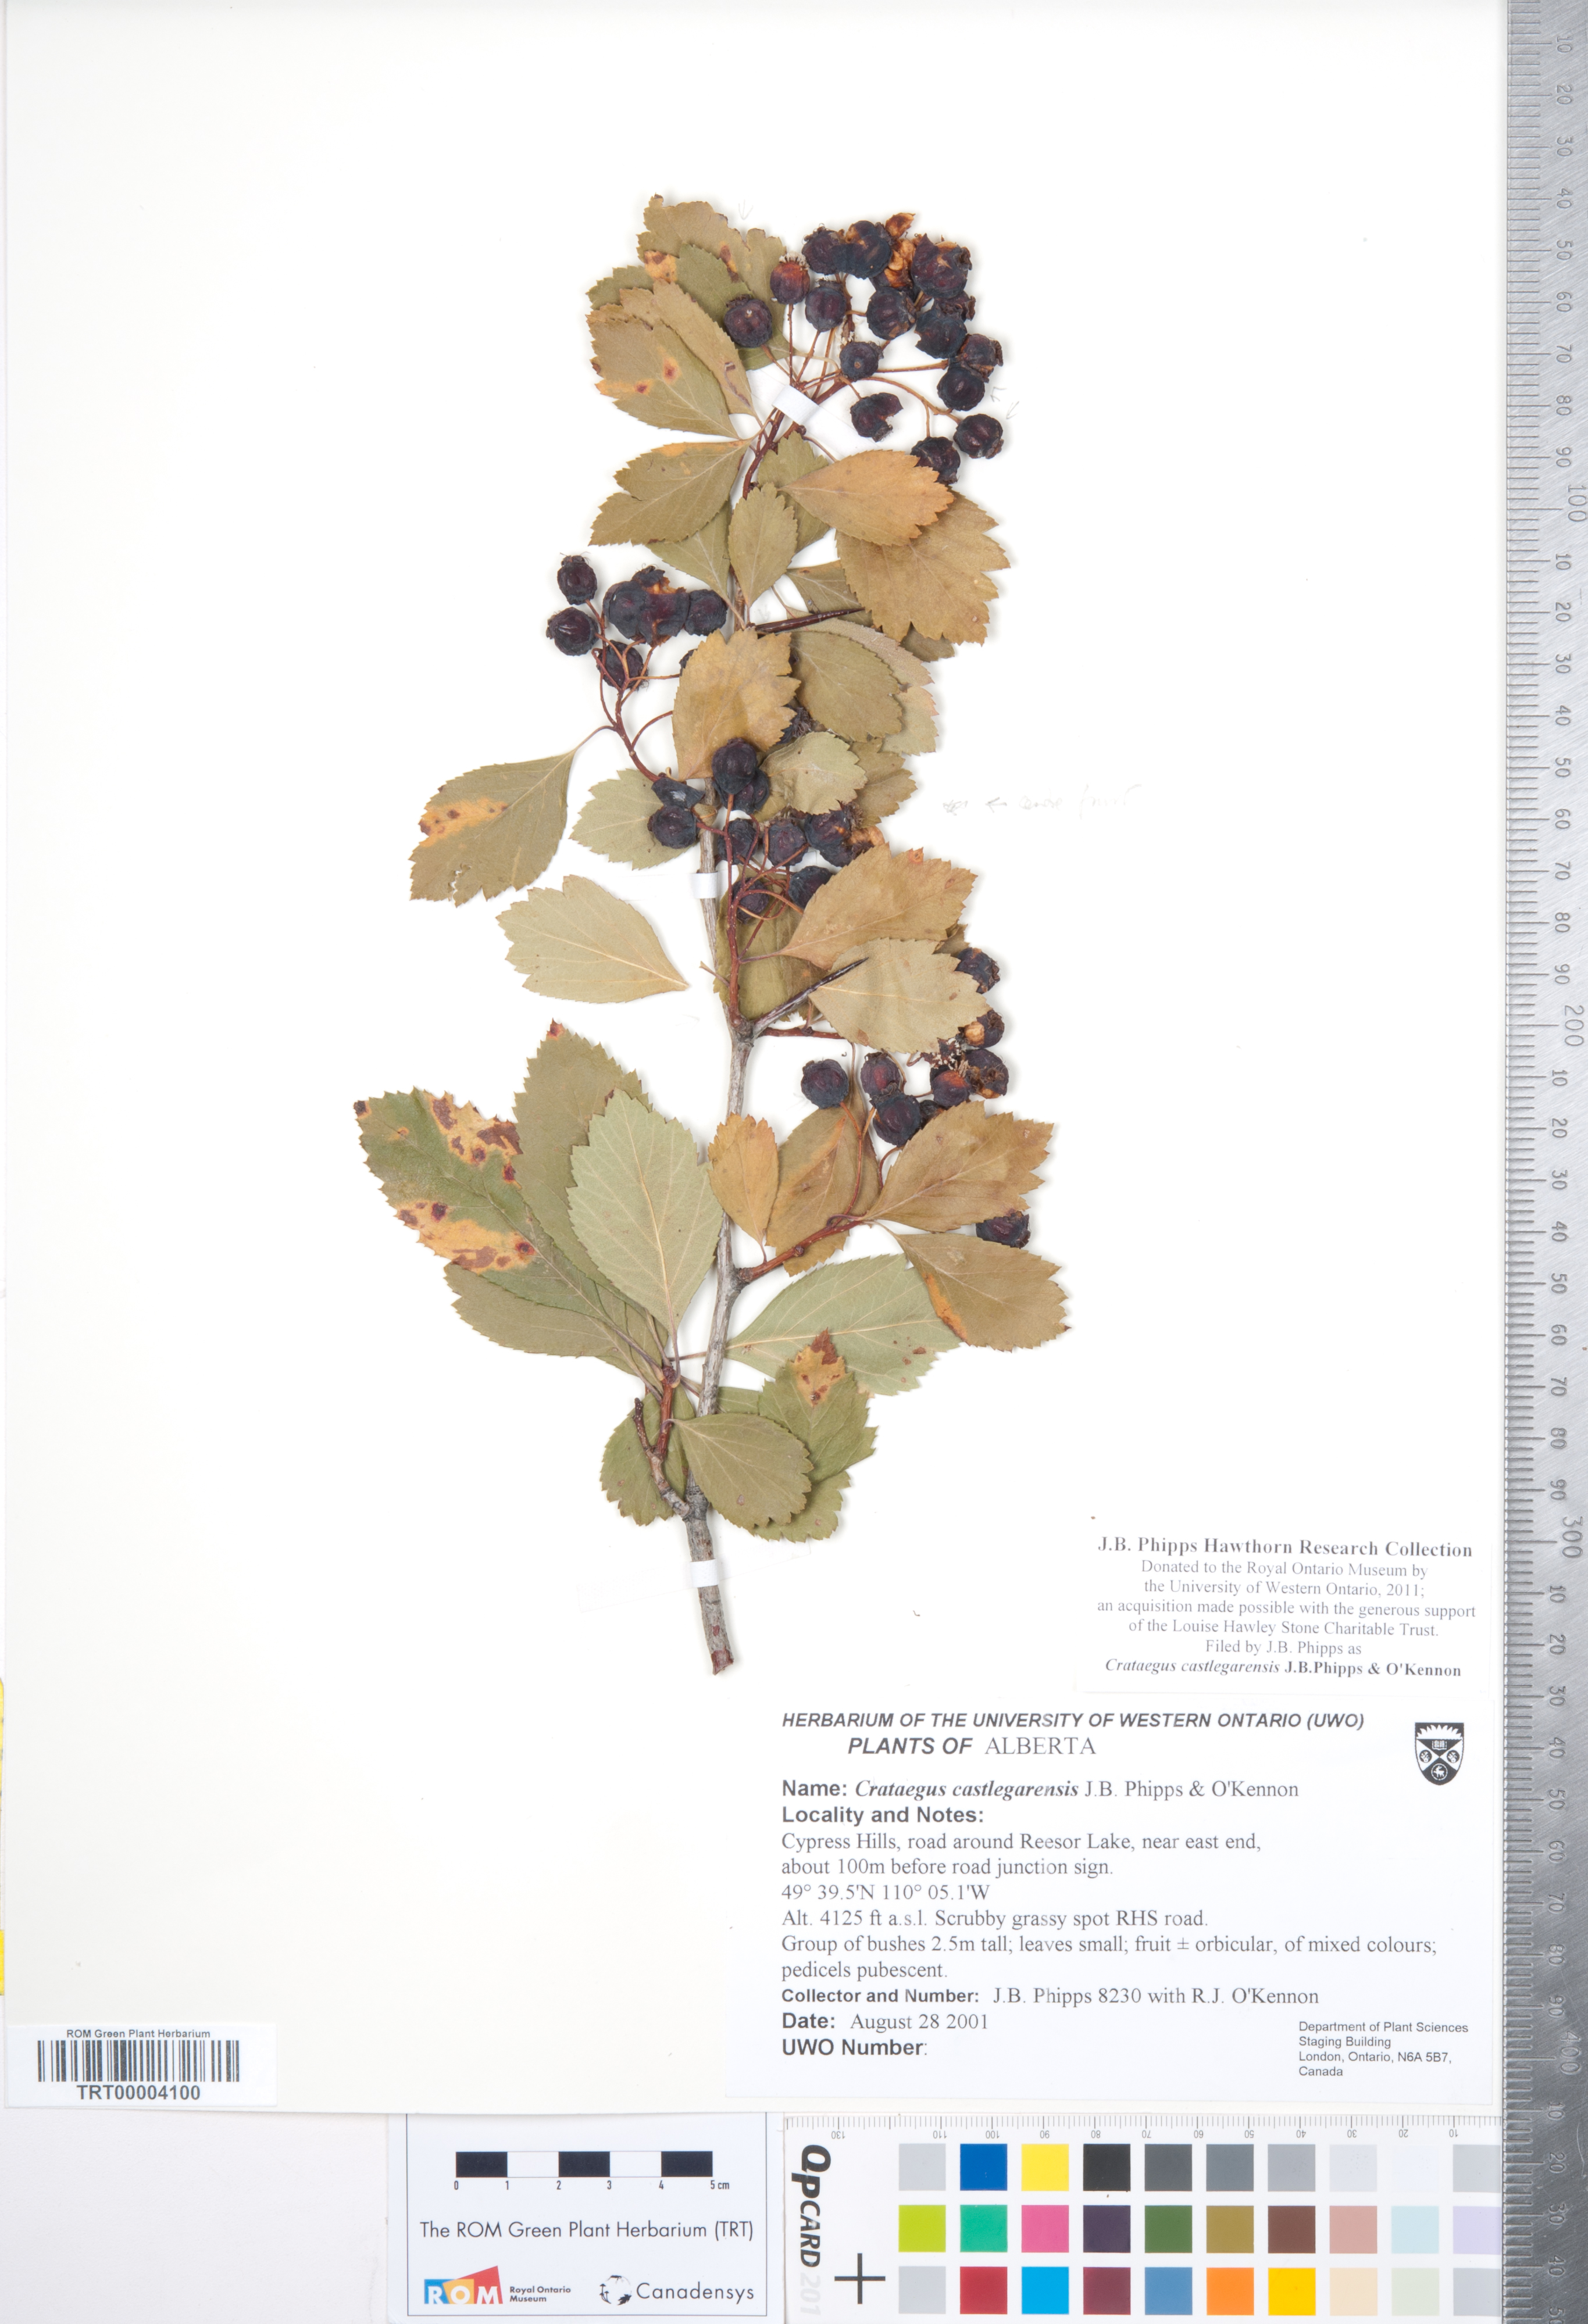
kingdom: Plantae
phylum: Tracheophyta
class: Magnoliopsida
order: Rosales
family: Rosaceae
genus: Crataegus
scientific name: Crataegus castlegarensis
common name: Castlegar hawthorn
